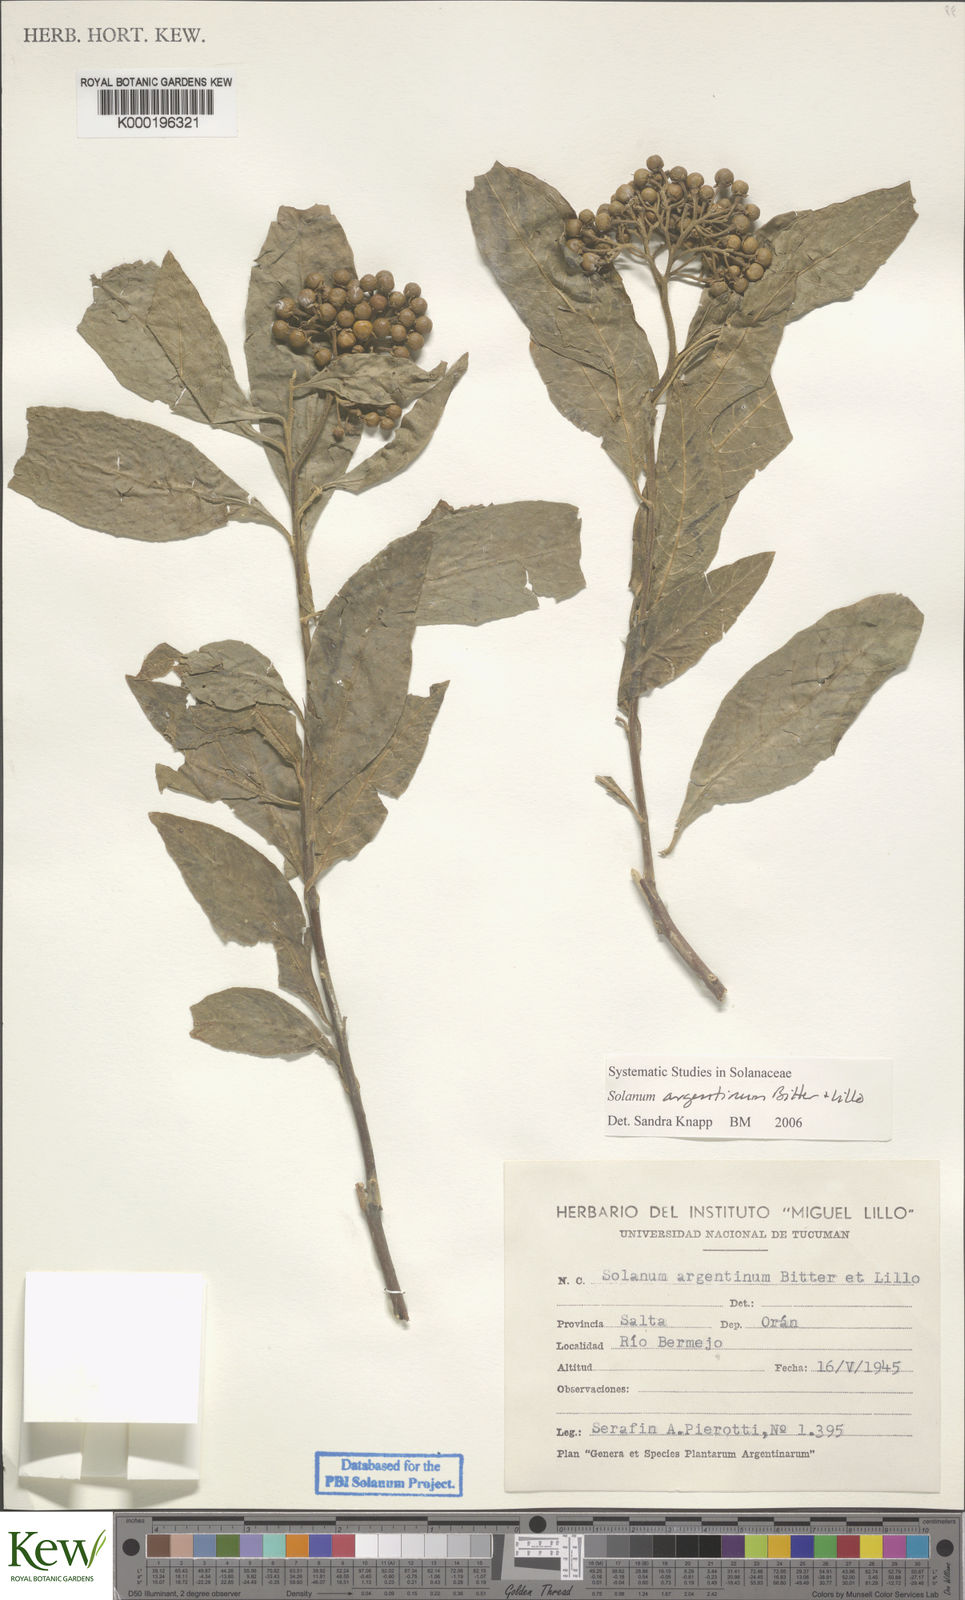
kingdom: Plantae
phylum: Tracheophyta
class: Magnoliopsida
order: Solanales
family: Solanaceae
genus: Solanum
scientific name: Solanum argentinum
